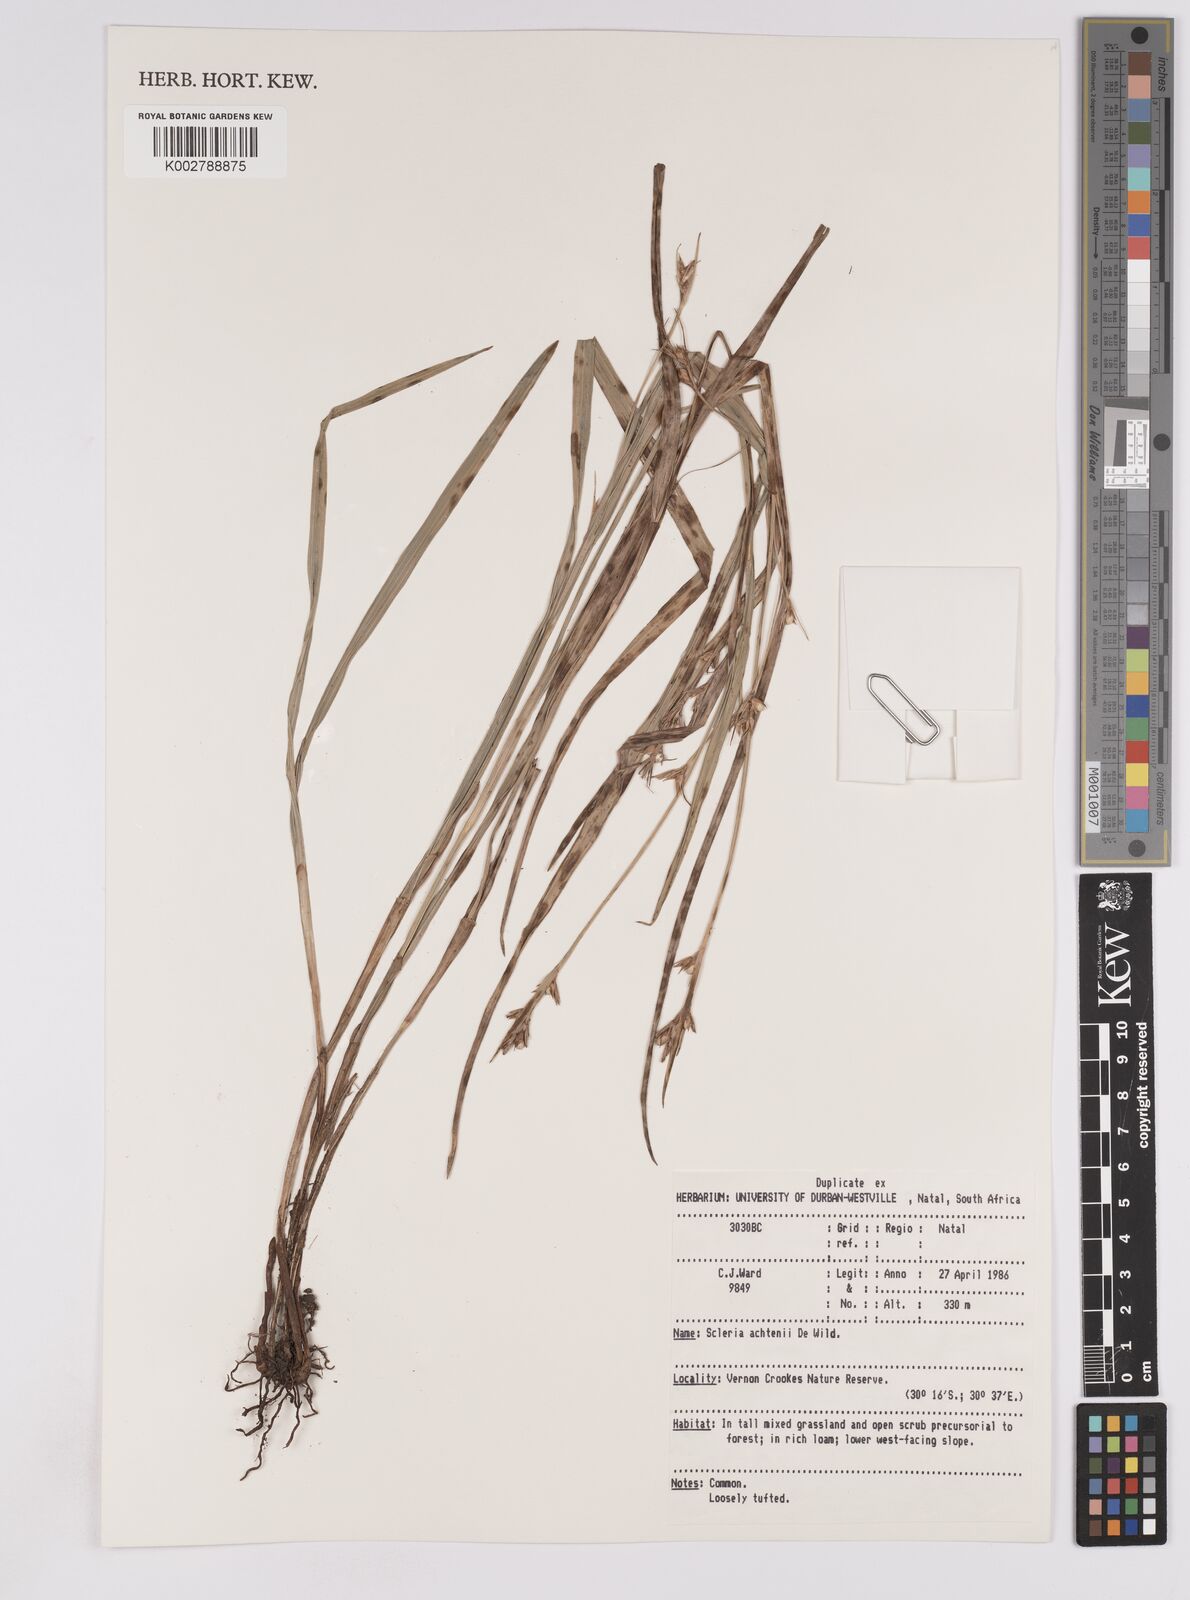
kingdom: Plantae
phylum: Tracheophyta
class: Liliopsida
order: Poales
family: Cyperaceae
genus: Scleria
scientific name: Scleria achtenii
